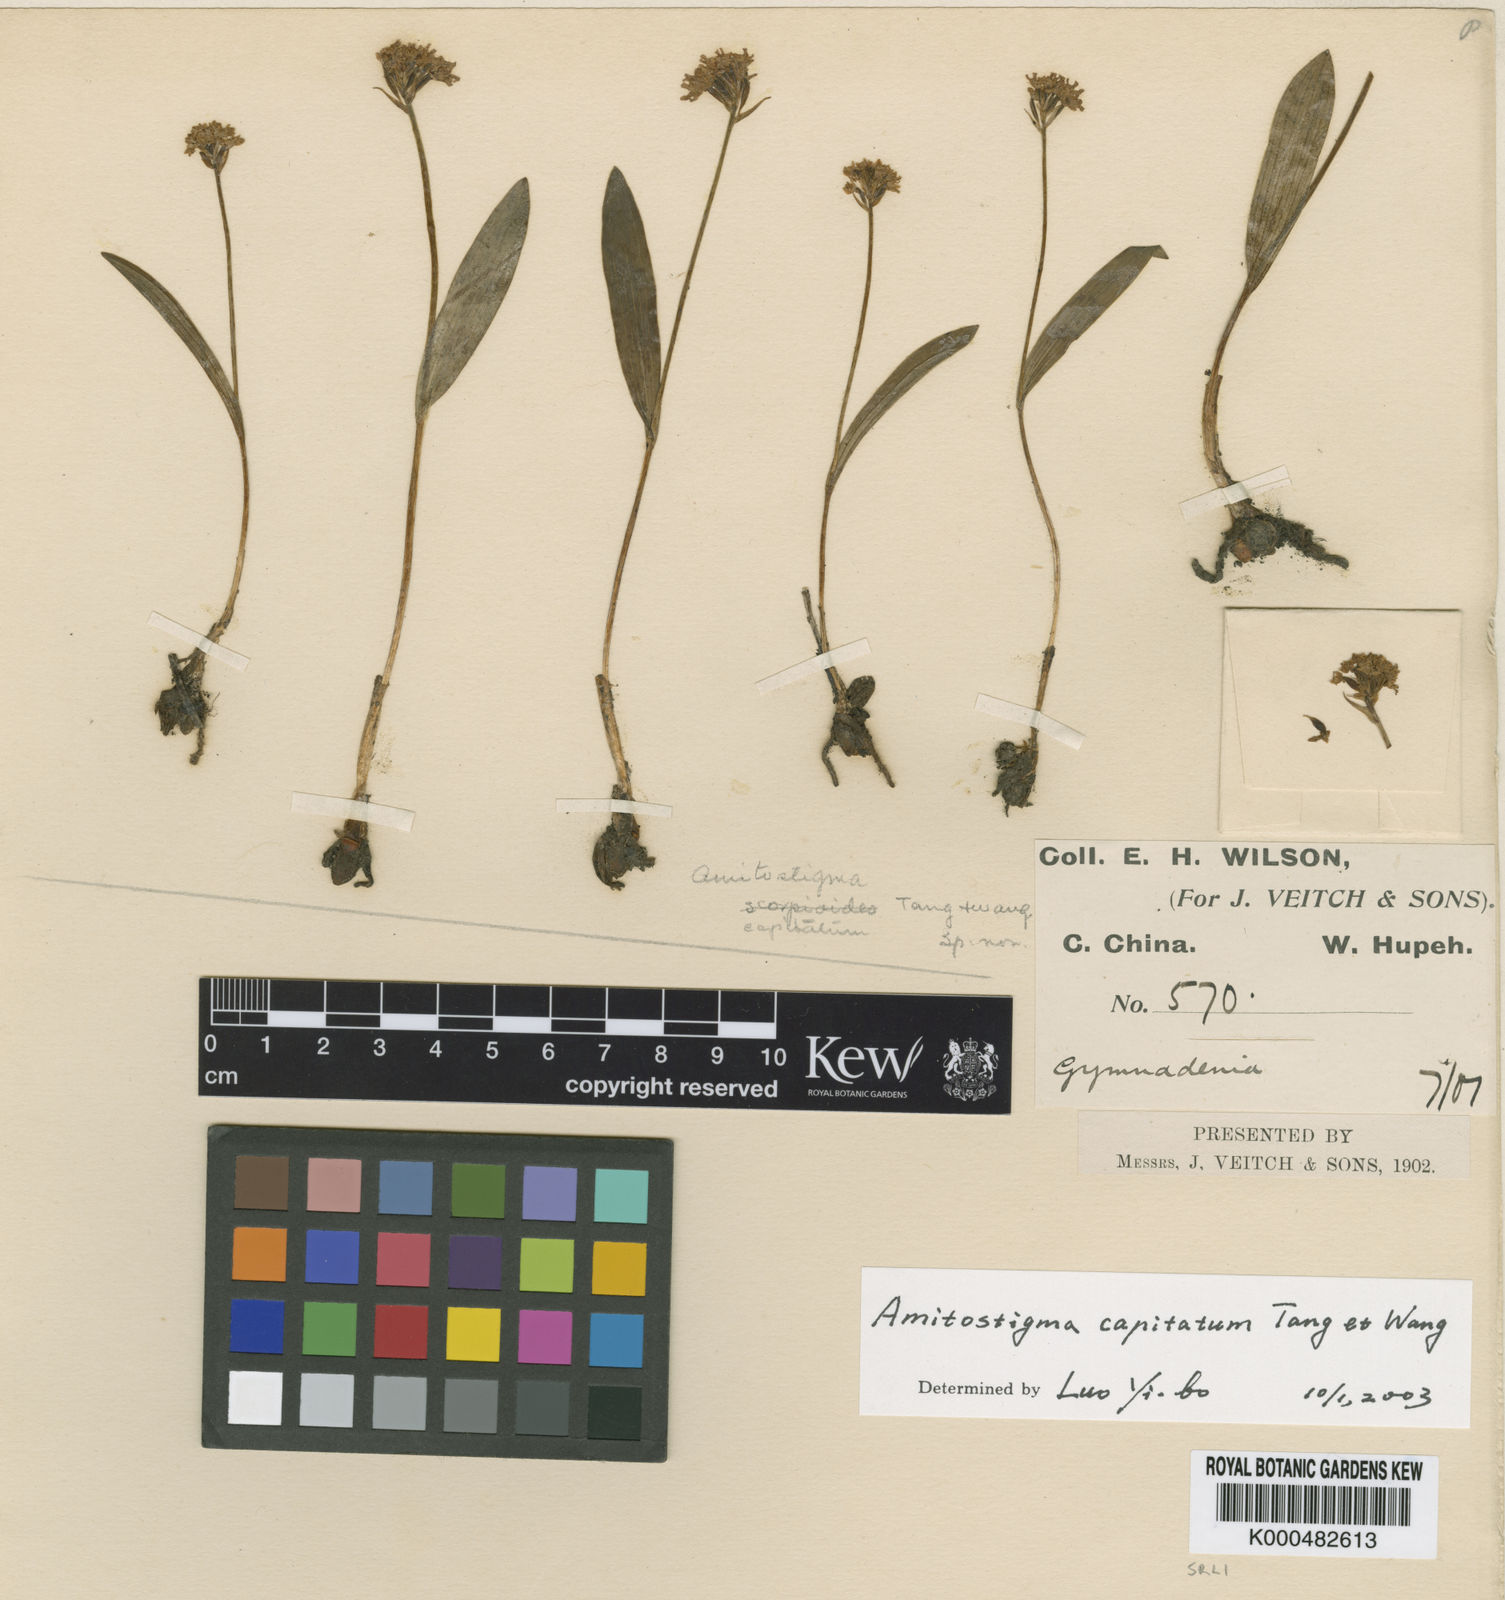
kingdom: Plantae
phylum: Tracheophyta
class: Liliopsida
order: Asparagales
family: Orchidaceae
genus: Hemipilia
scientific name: Hemipilia capitata
